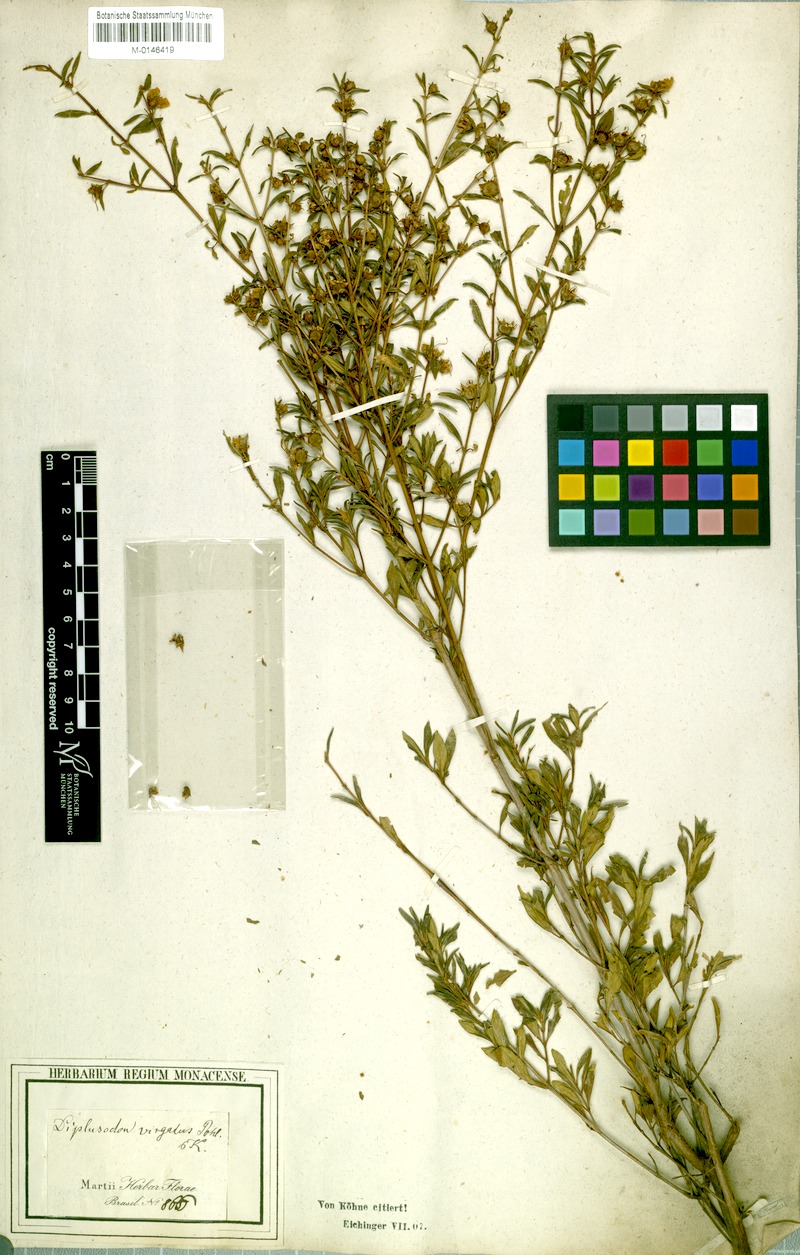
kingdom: Plantae
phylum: Tracheophyta
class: Magnoliopsida
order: Myrtales
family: Lythraceae
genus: Diplusodon
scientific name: Diplusodon virgatus
